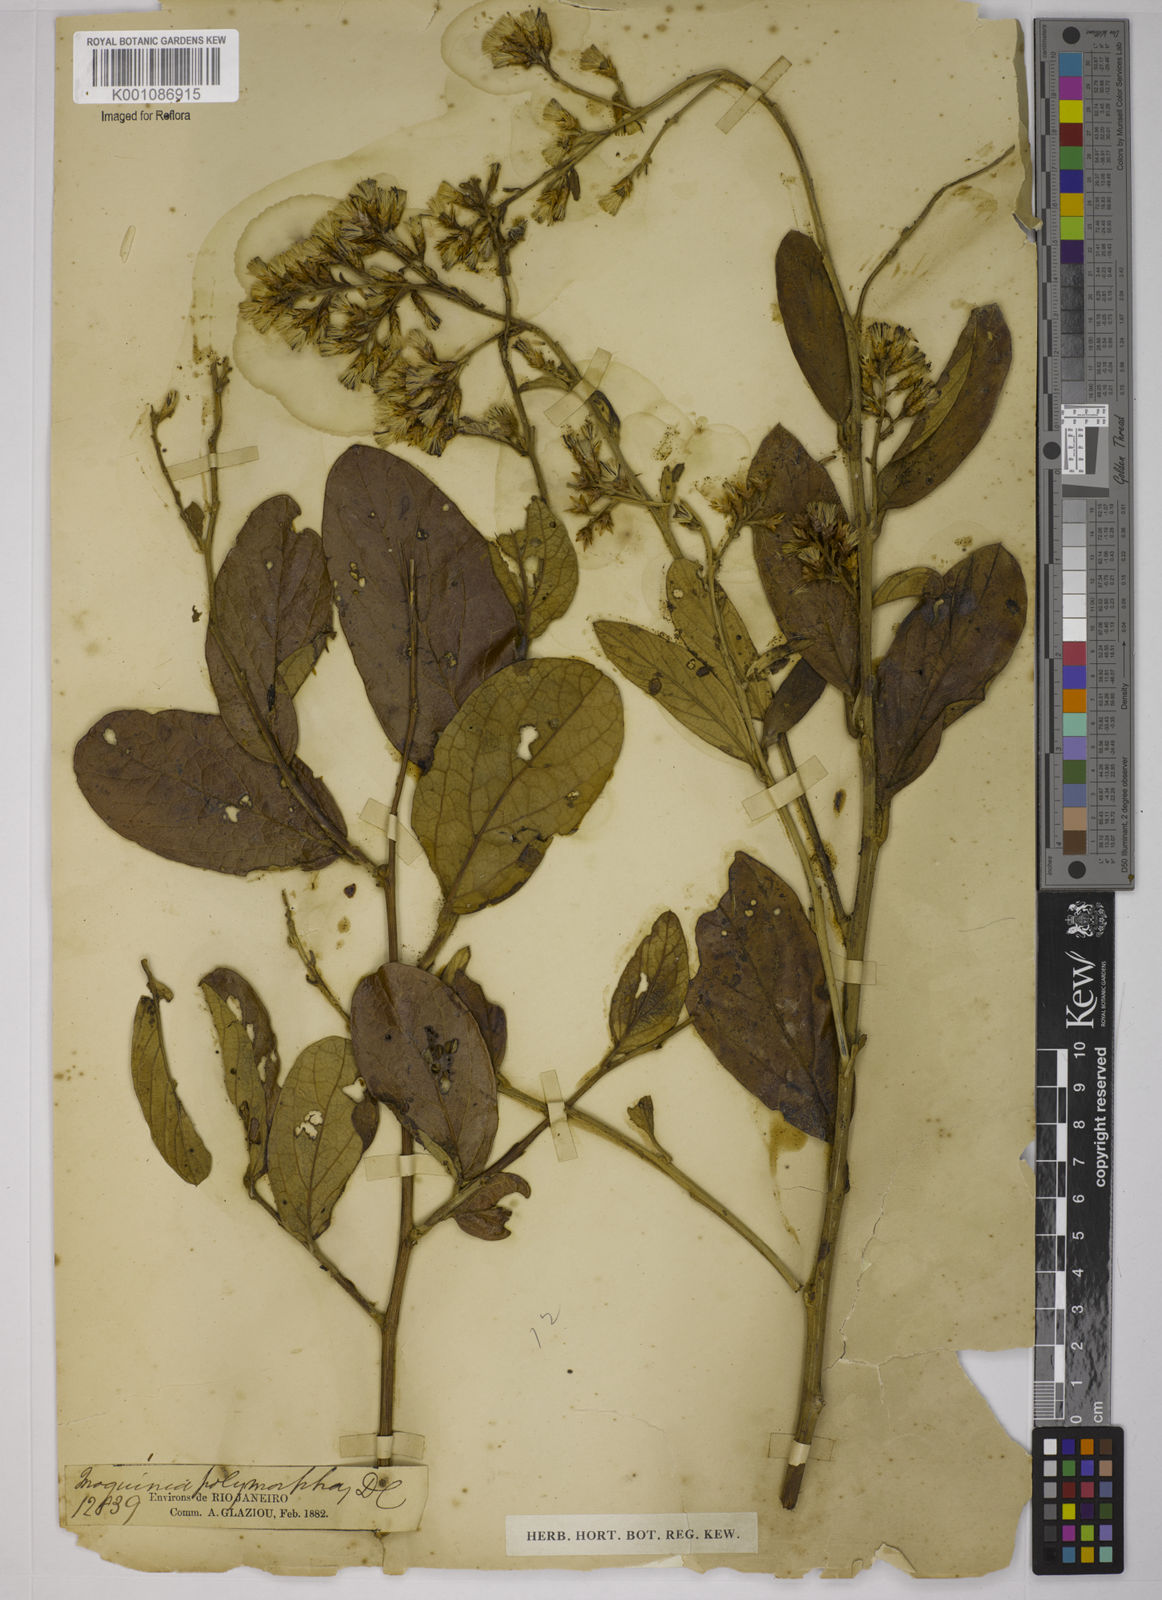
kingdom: Plantae
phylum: Tracheophyta
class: Magnoliopsida
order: Asterales
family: Asteraceae
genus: Moquiniastrum
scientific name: Moquiniastrum gardneri
